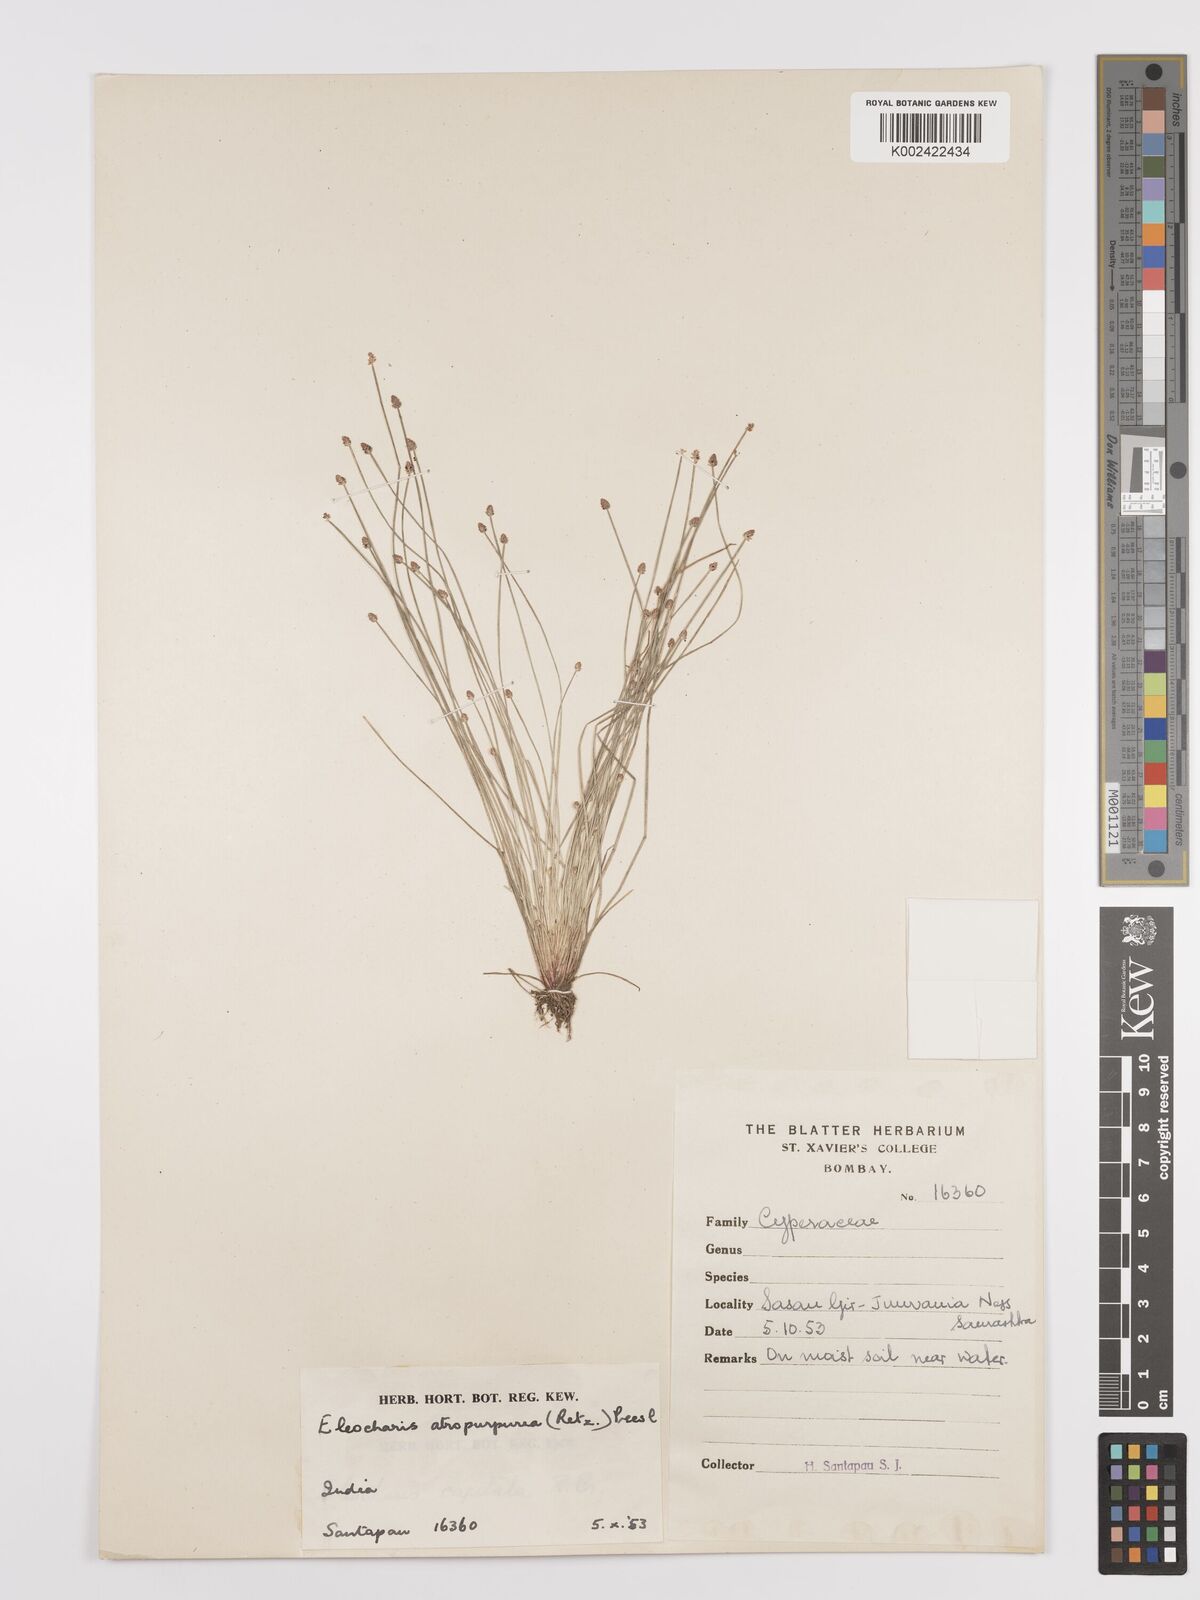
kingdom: Plantae
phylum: Tracheophyta
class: Liliopsida
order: Poales
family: Cyperaceae
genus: Eleocharis
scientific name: Eleocharis atropurpurea
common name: Purple spikerush
